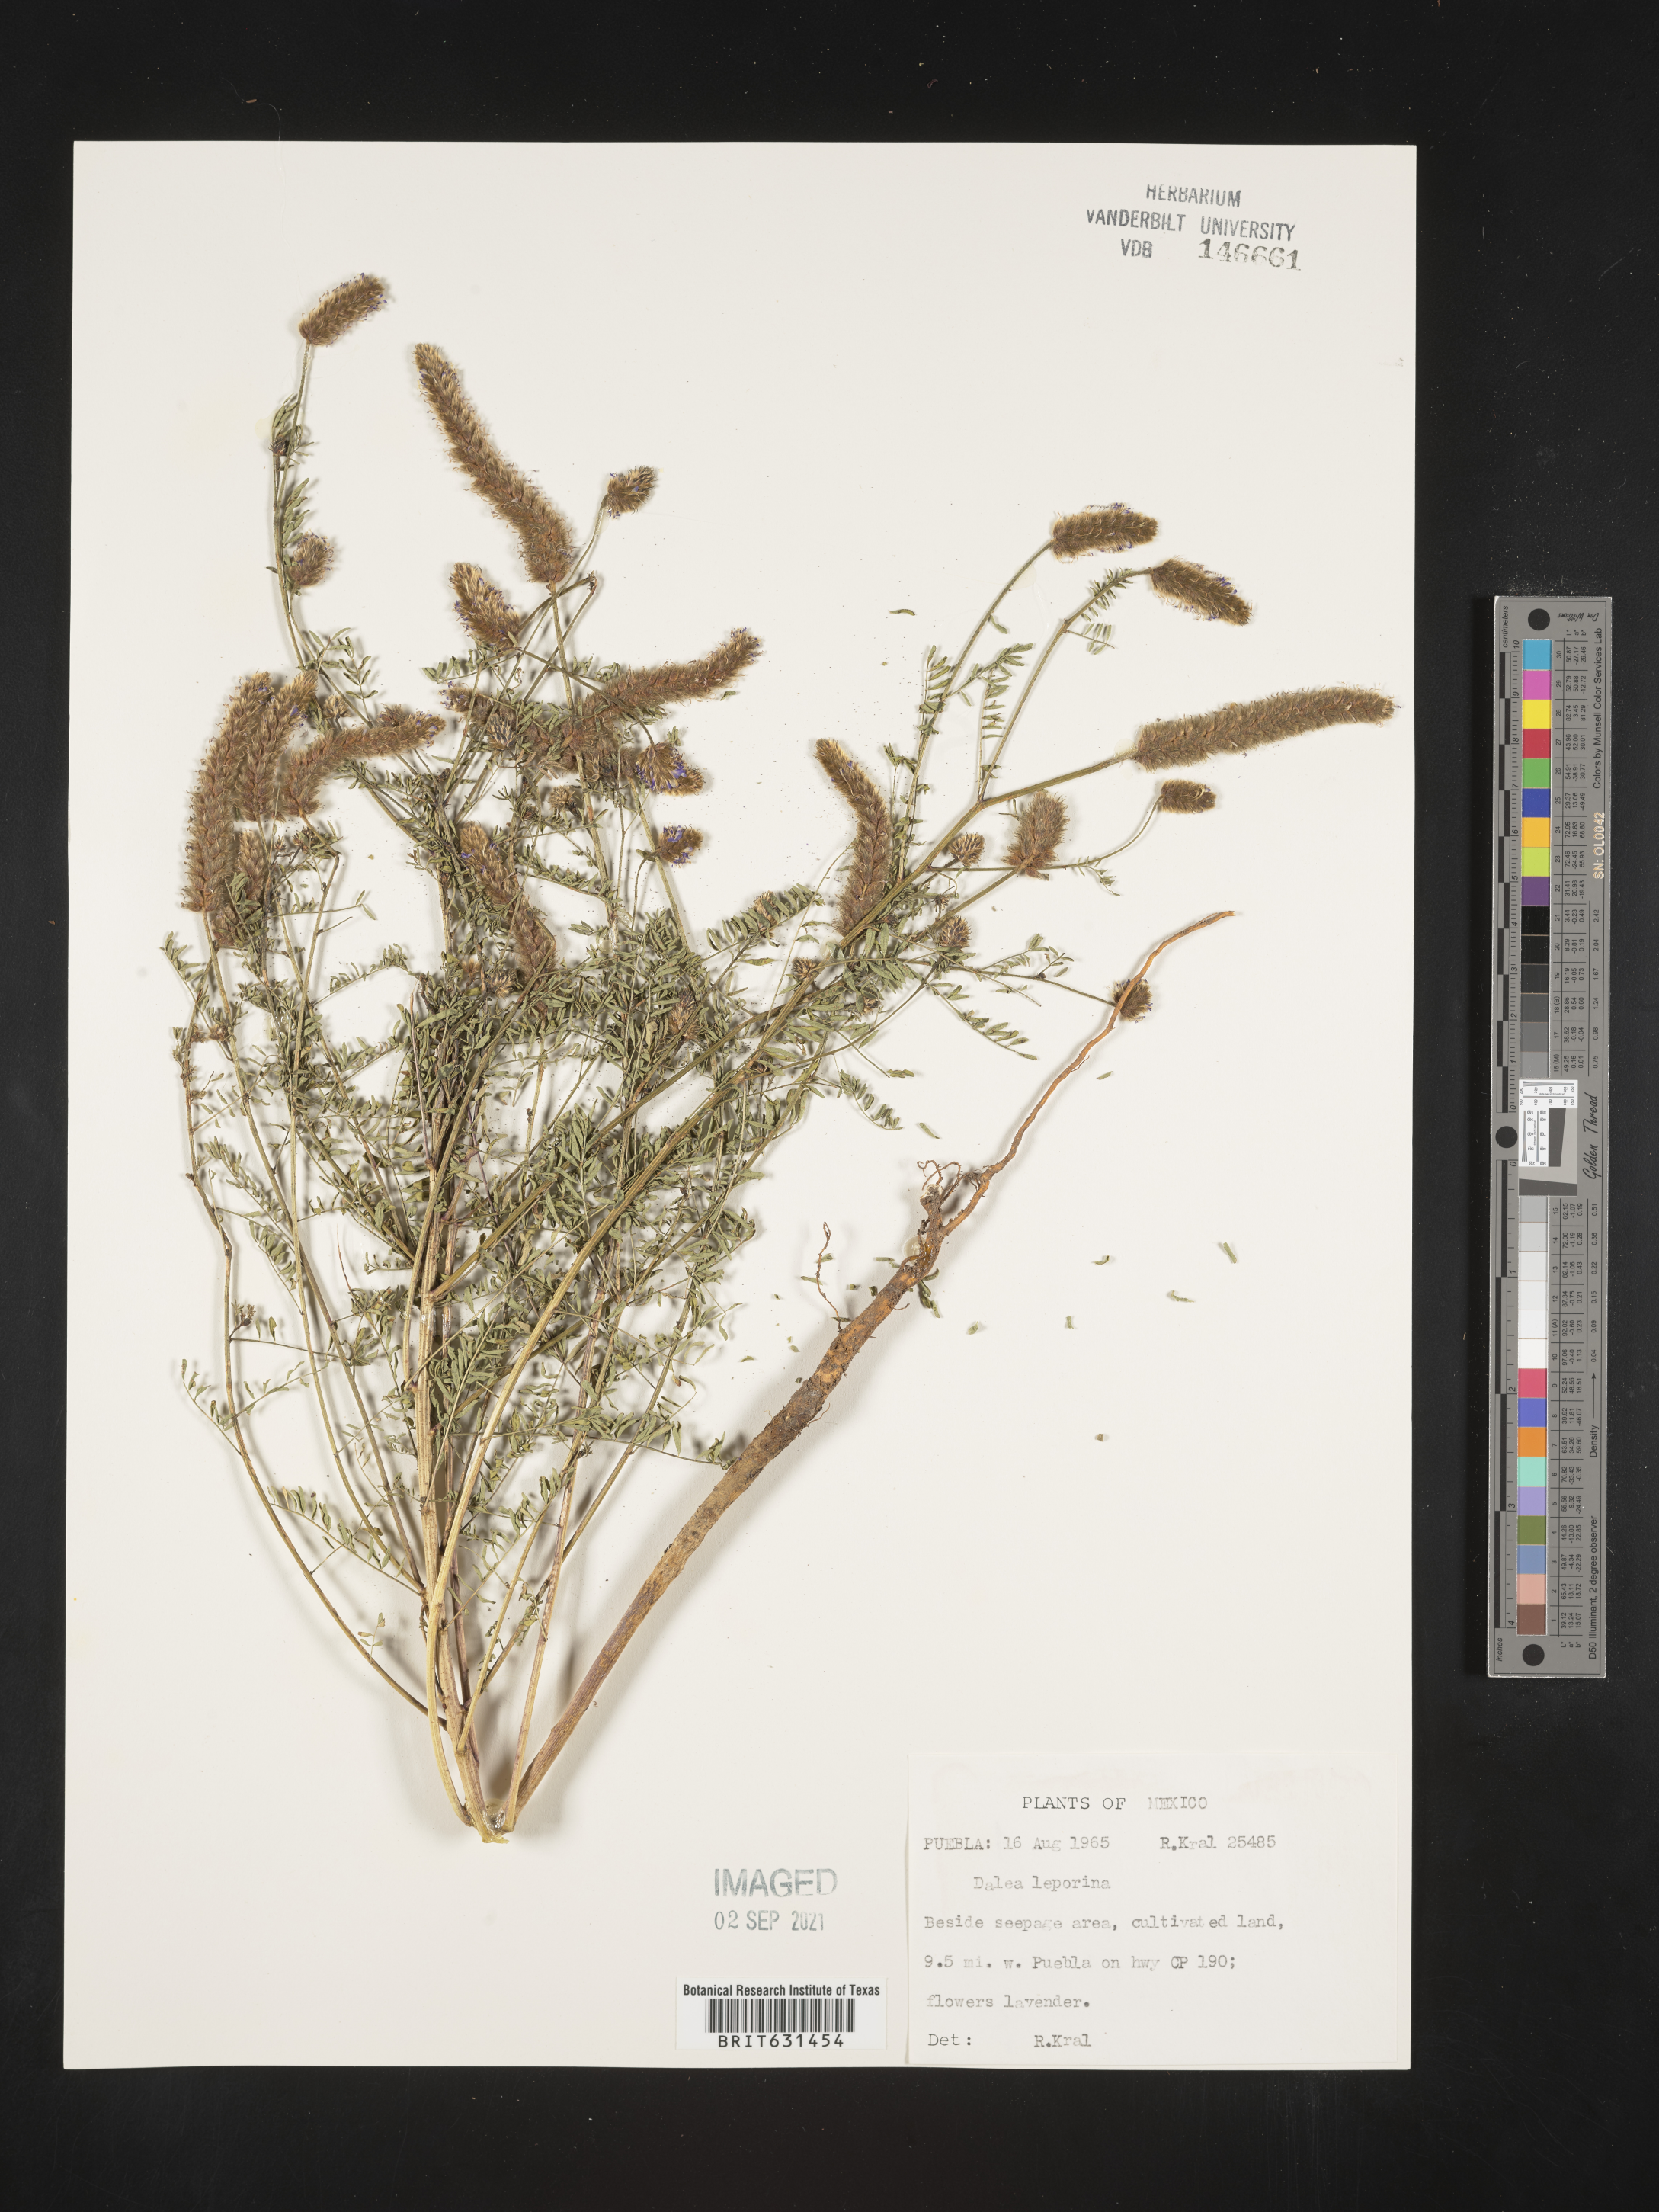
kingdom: Plantae
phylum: Tracheophyta
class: Magnoliopsida
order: Fabales
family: Fabaceae
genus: Dalea
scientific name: Dalea leporina
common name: Foxtail dalea
